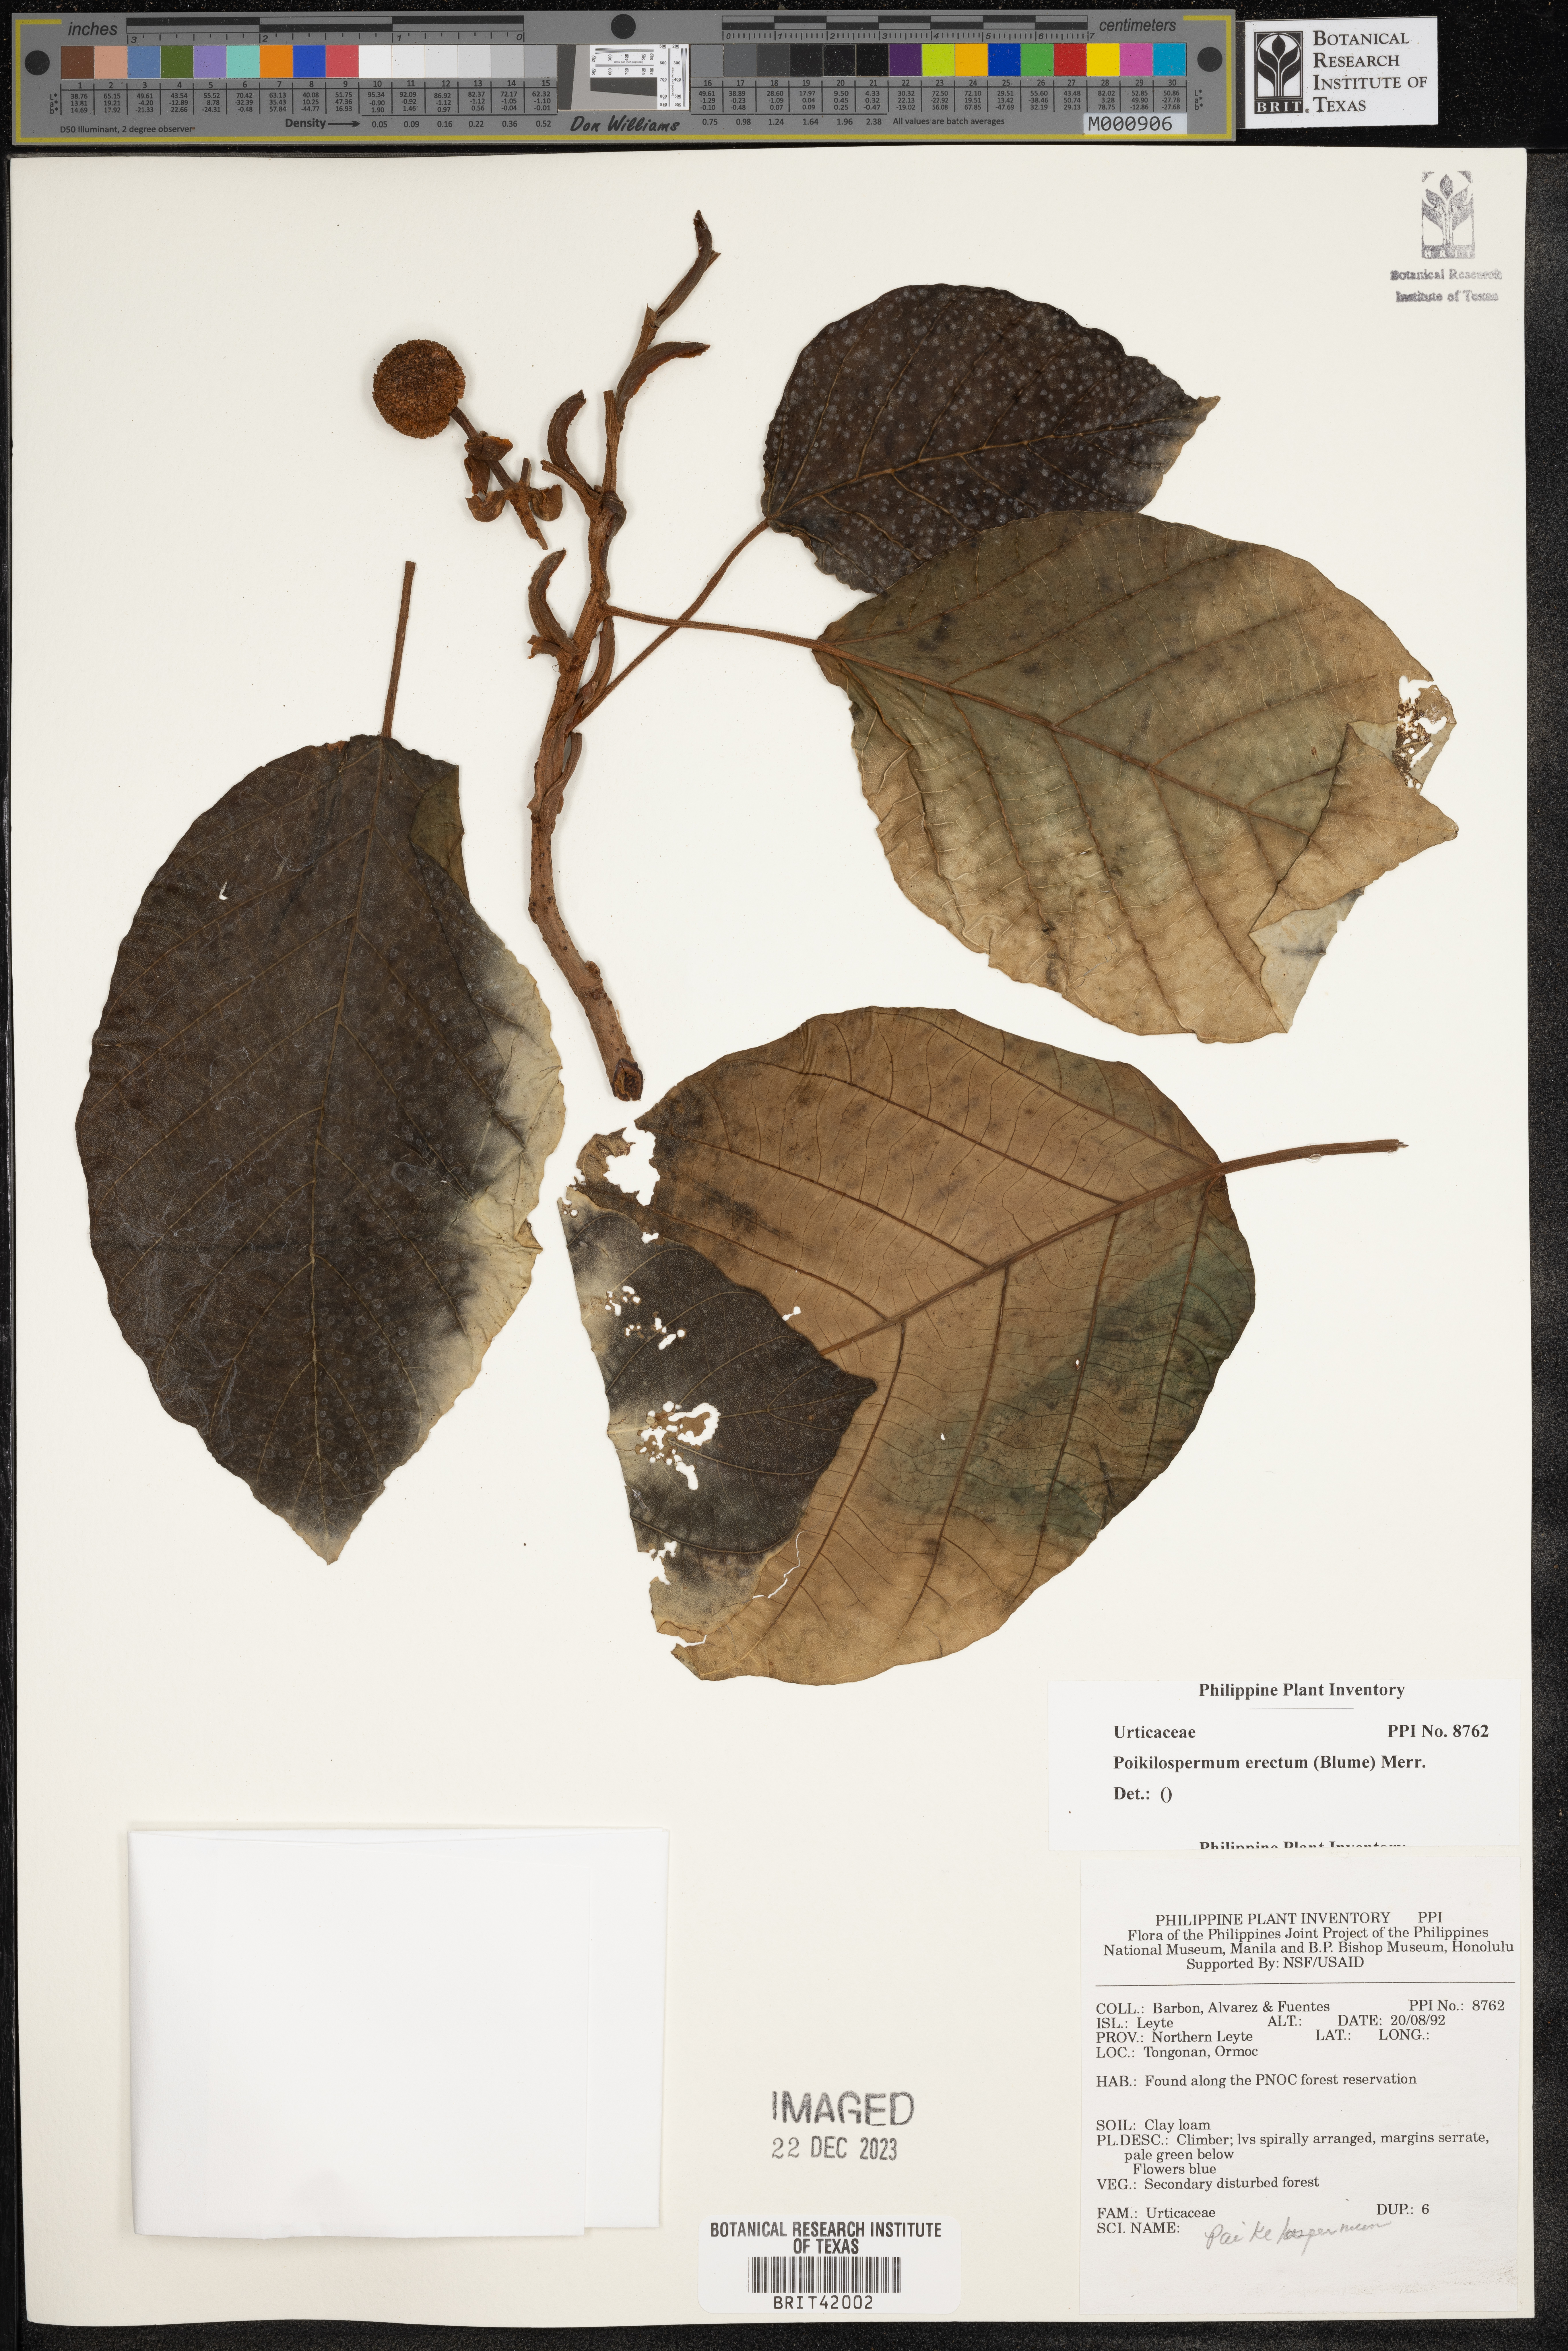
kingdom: Plantae
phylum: Tracheophyta
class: Magnoliopsida
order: Rosales
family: Urticaceae
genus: Poikilospermum
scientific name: Poikilospermum erectum
